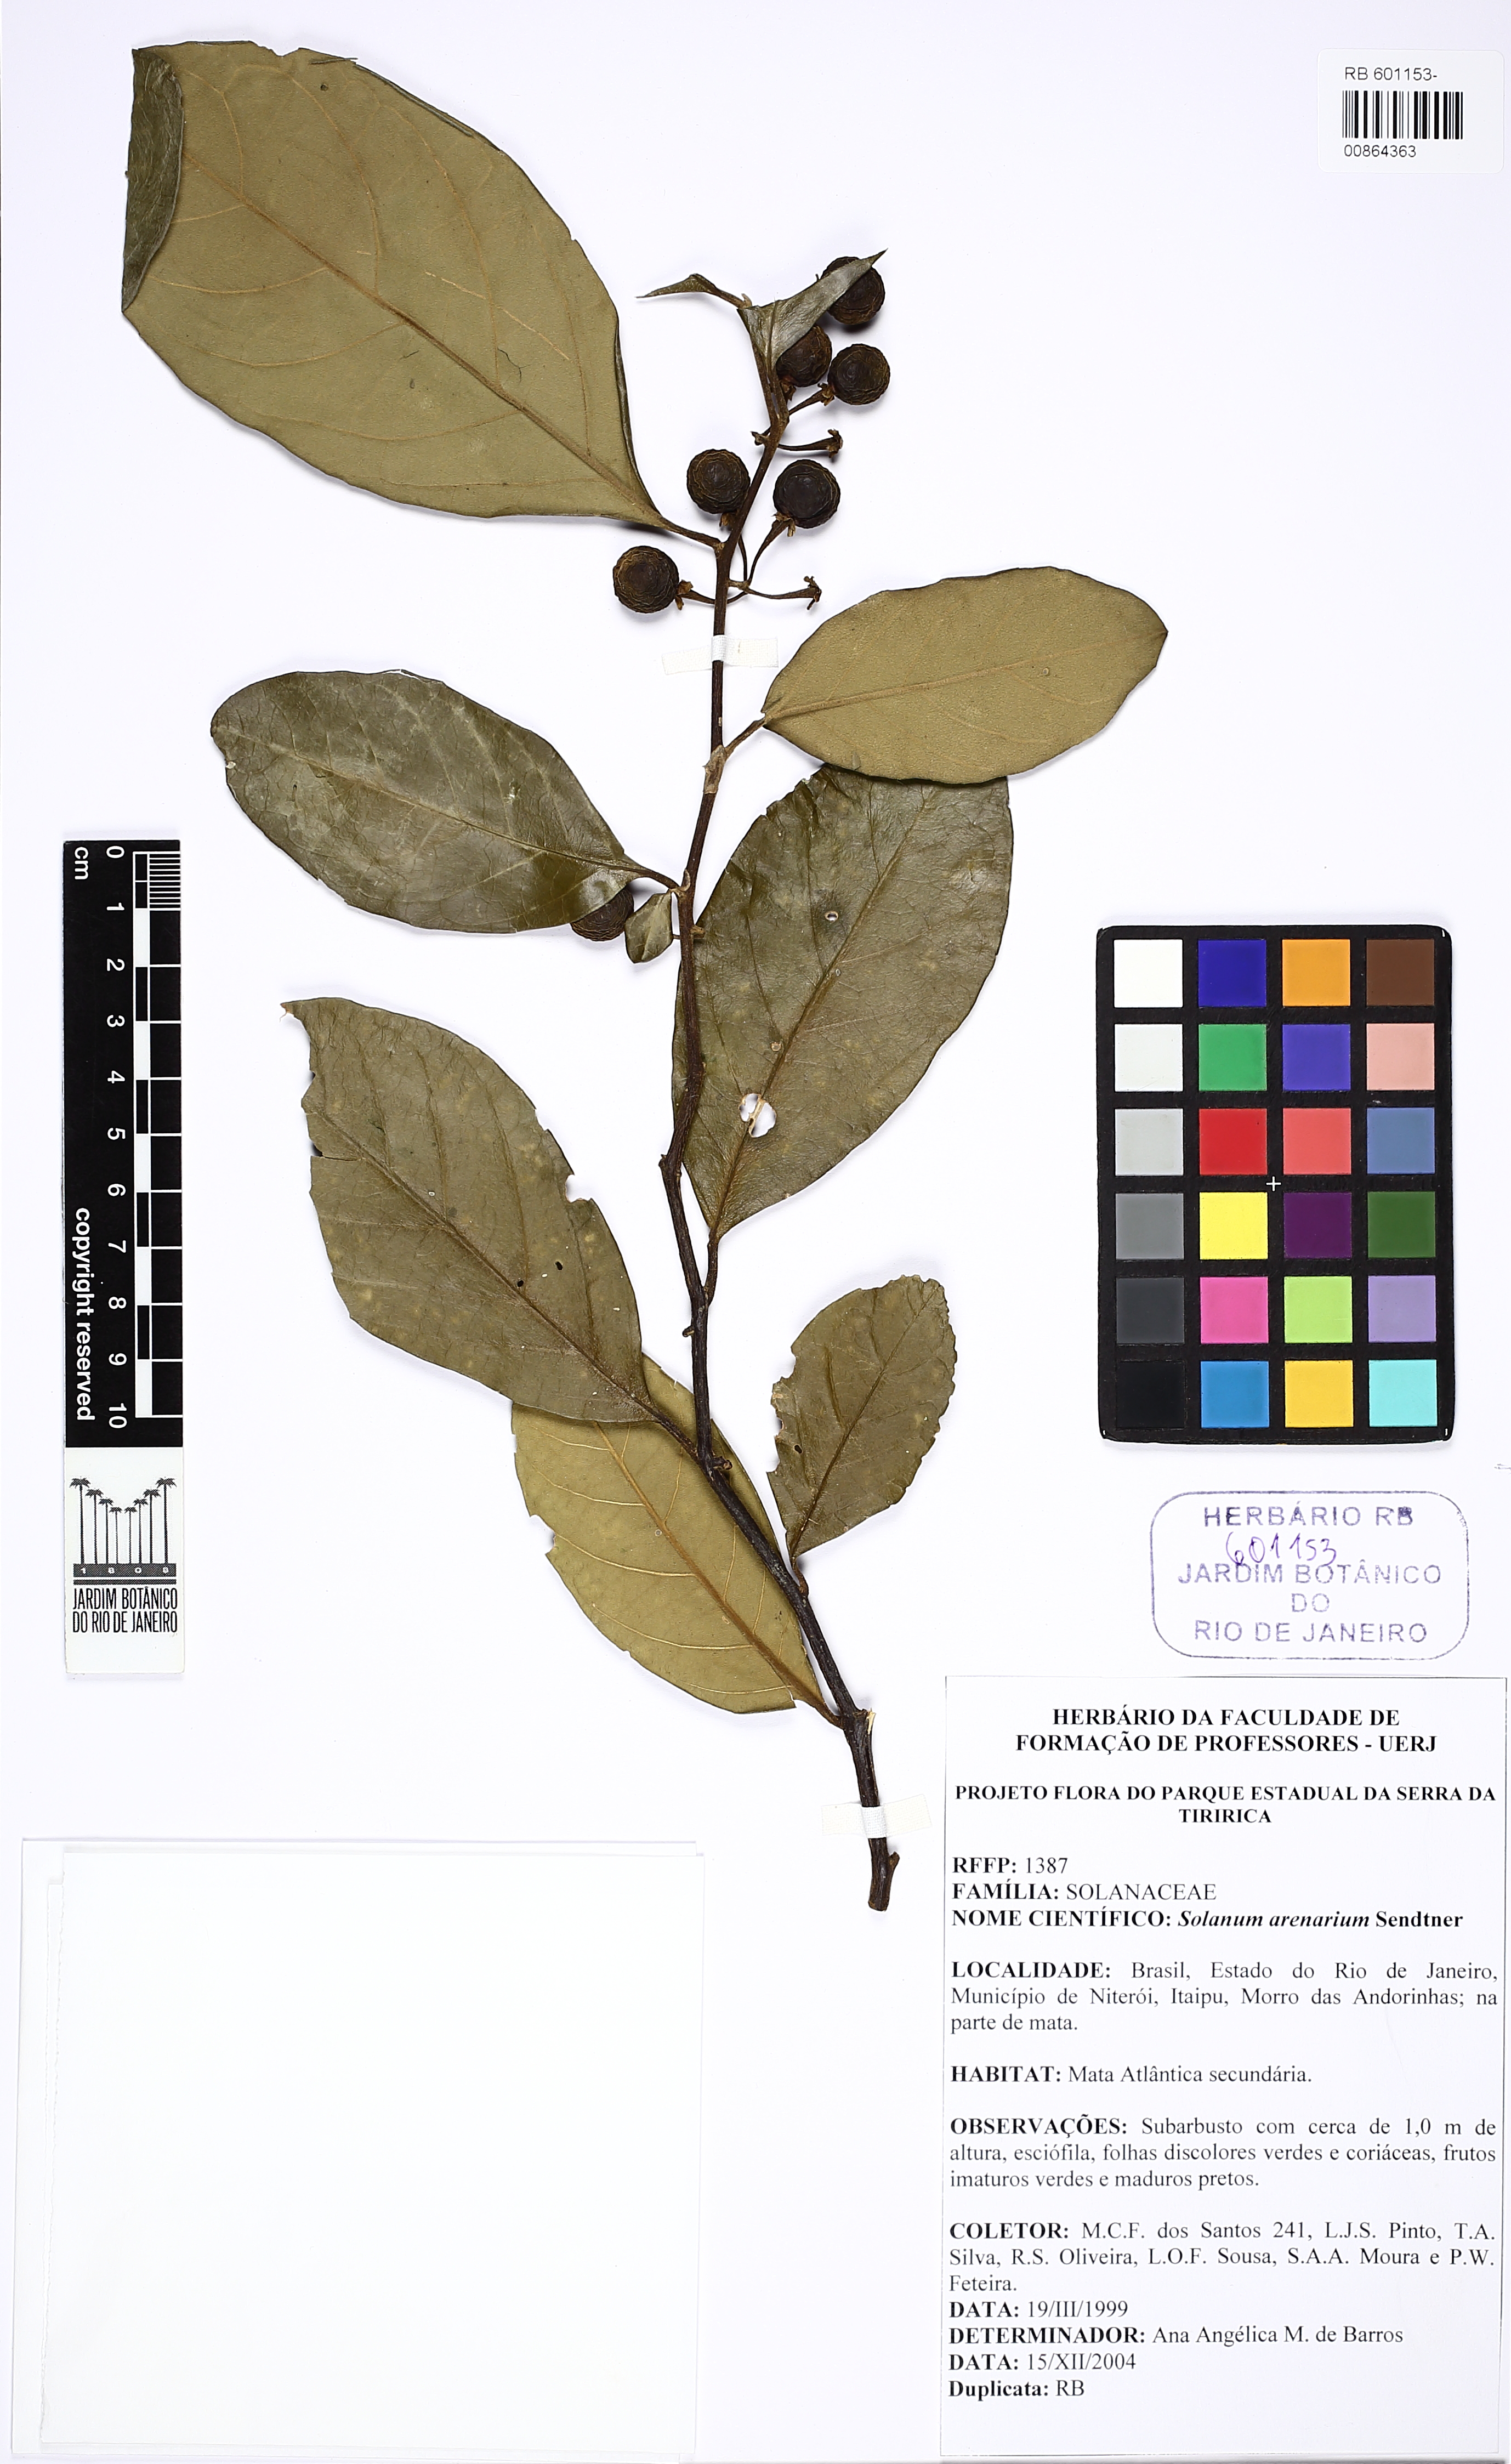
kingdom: Plantae
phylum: Tracheophyta
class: Magnoliopsida
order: Solanales
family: Solanaceae
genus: Solanum
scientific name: Solanum arenarium
